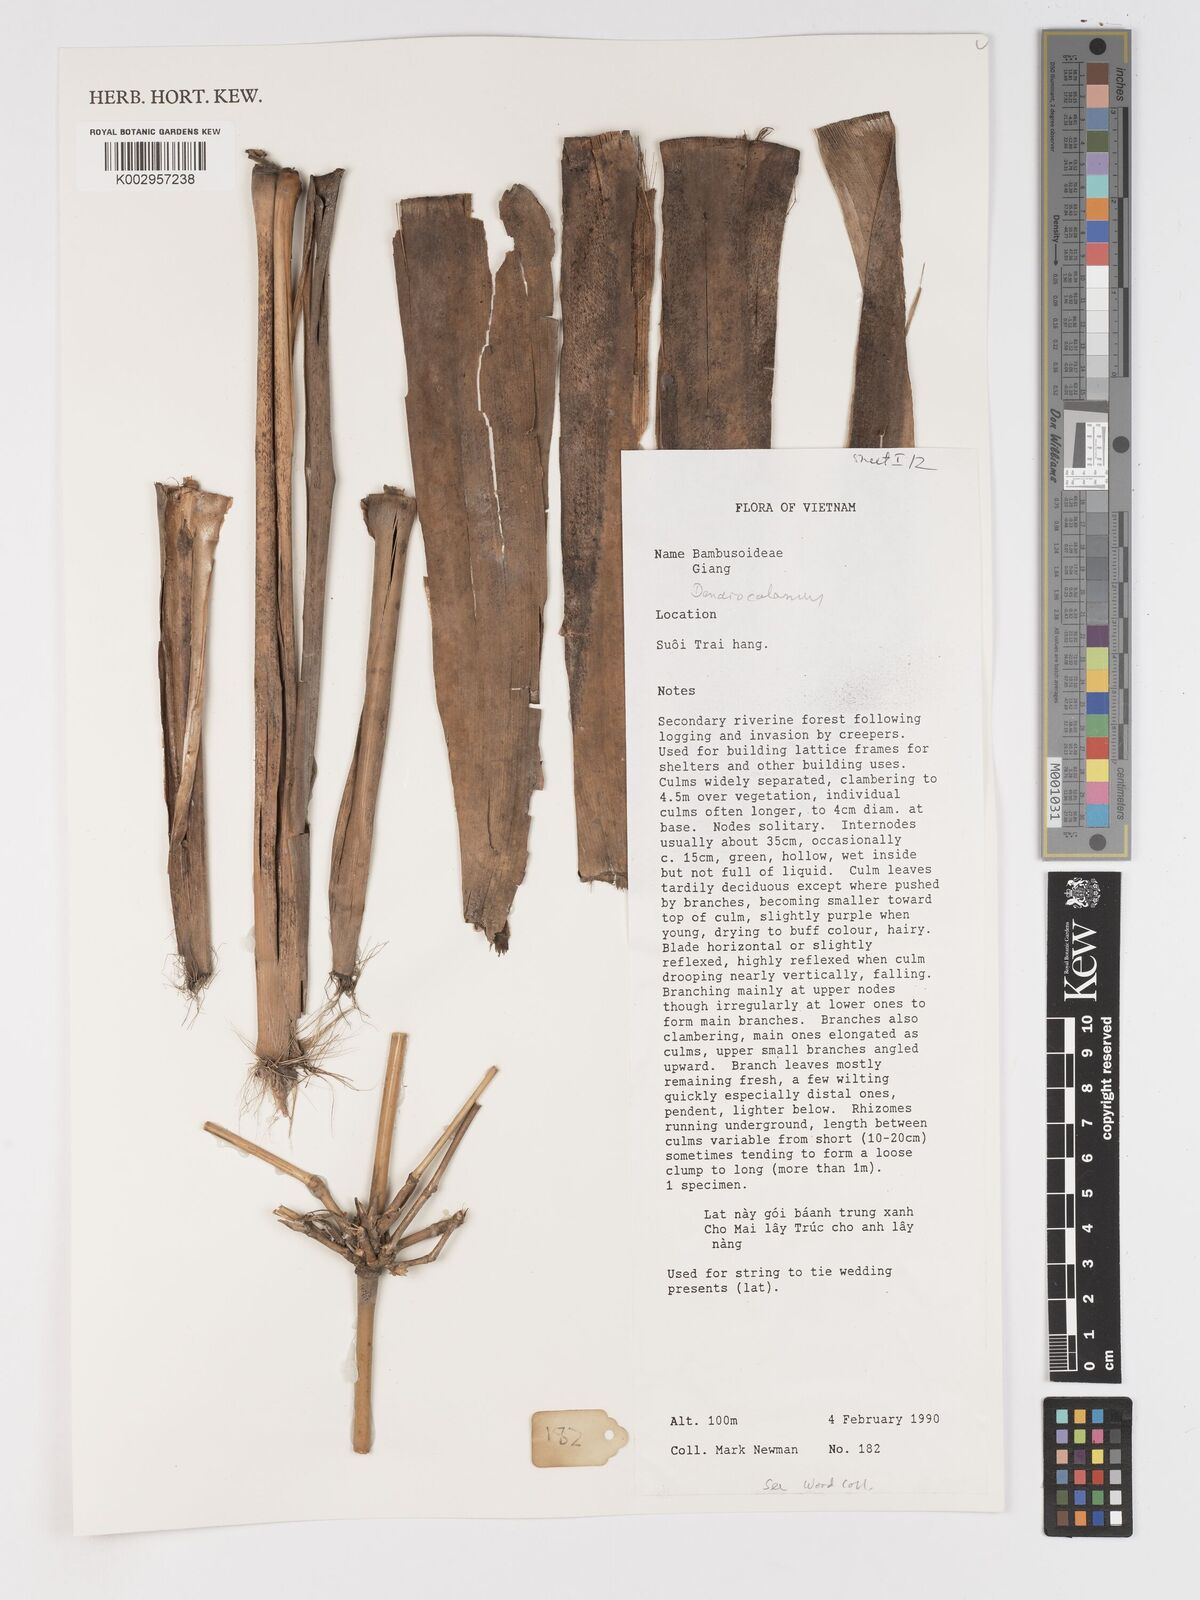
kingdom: Plantae
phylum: Tracheophyta
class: Liliopsida
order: Poales
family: Poaceae
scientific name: Poaceae
